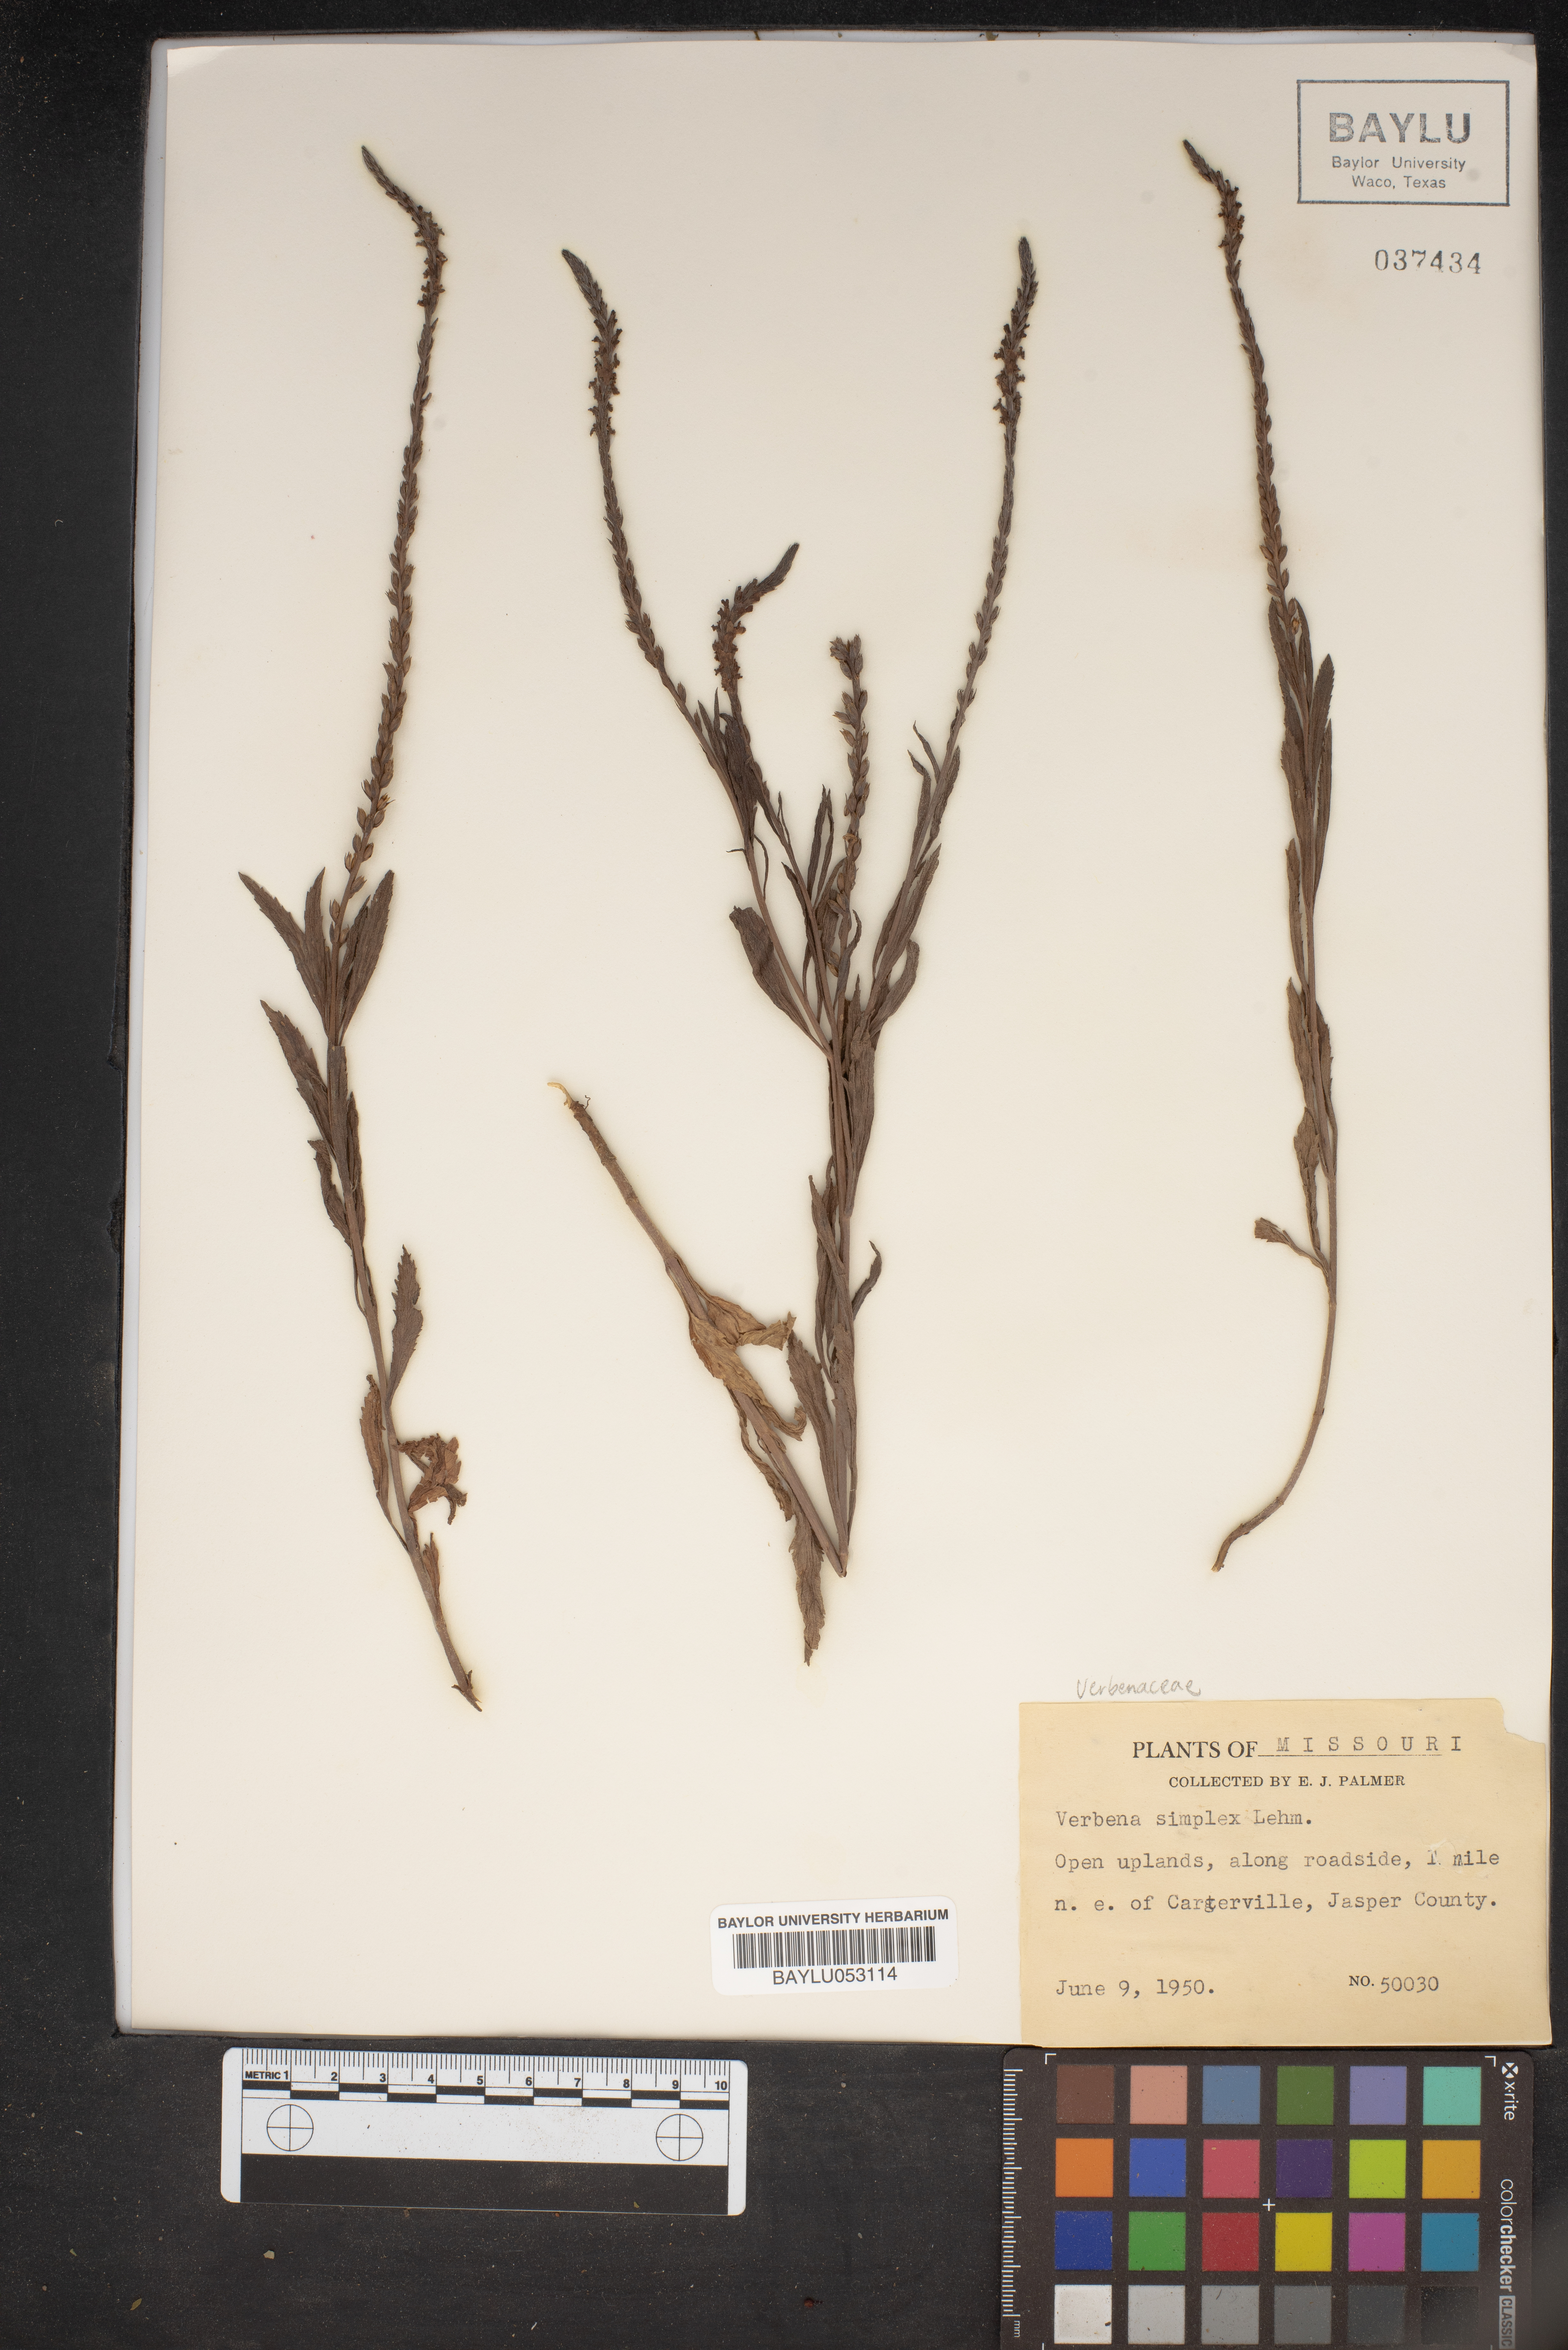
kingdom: Plantae
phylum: Tracheophyta
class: Magnoliopsida
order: Lamiales
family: Verbenaceae
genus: Verbena
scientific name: Verbena simplex
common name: Narrow-leaf vervain
